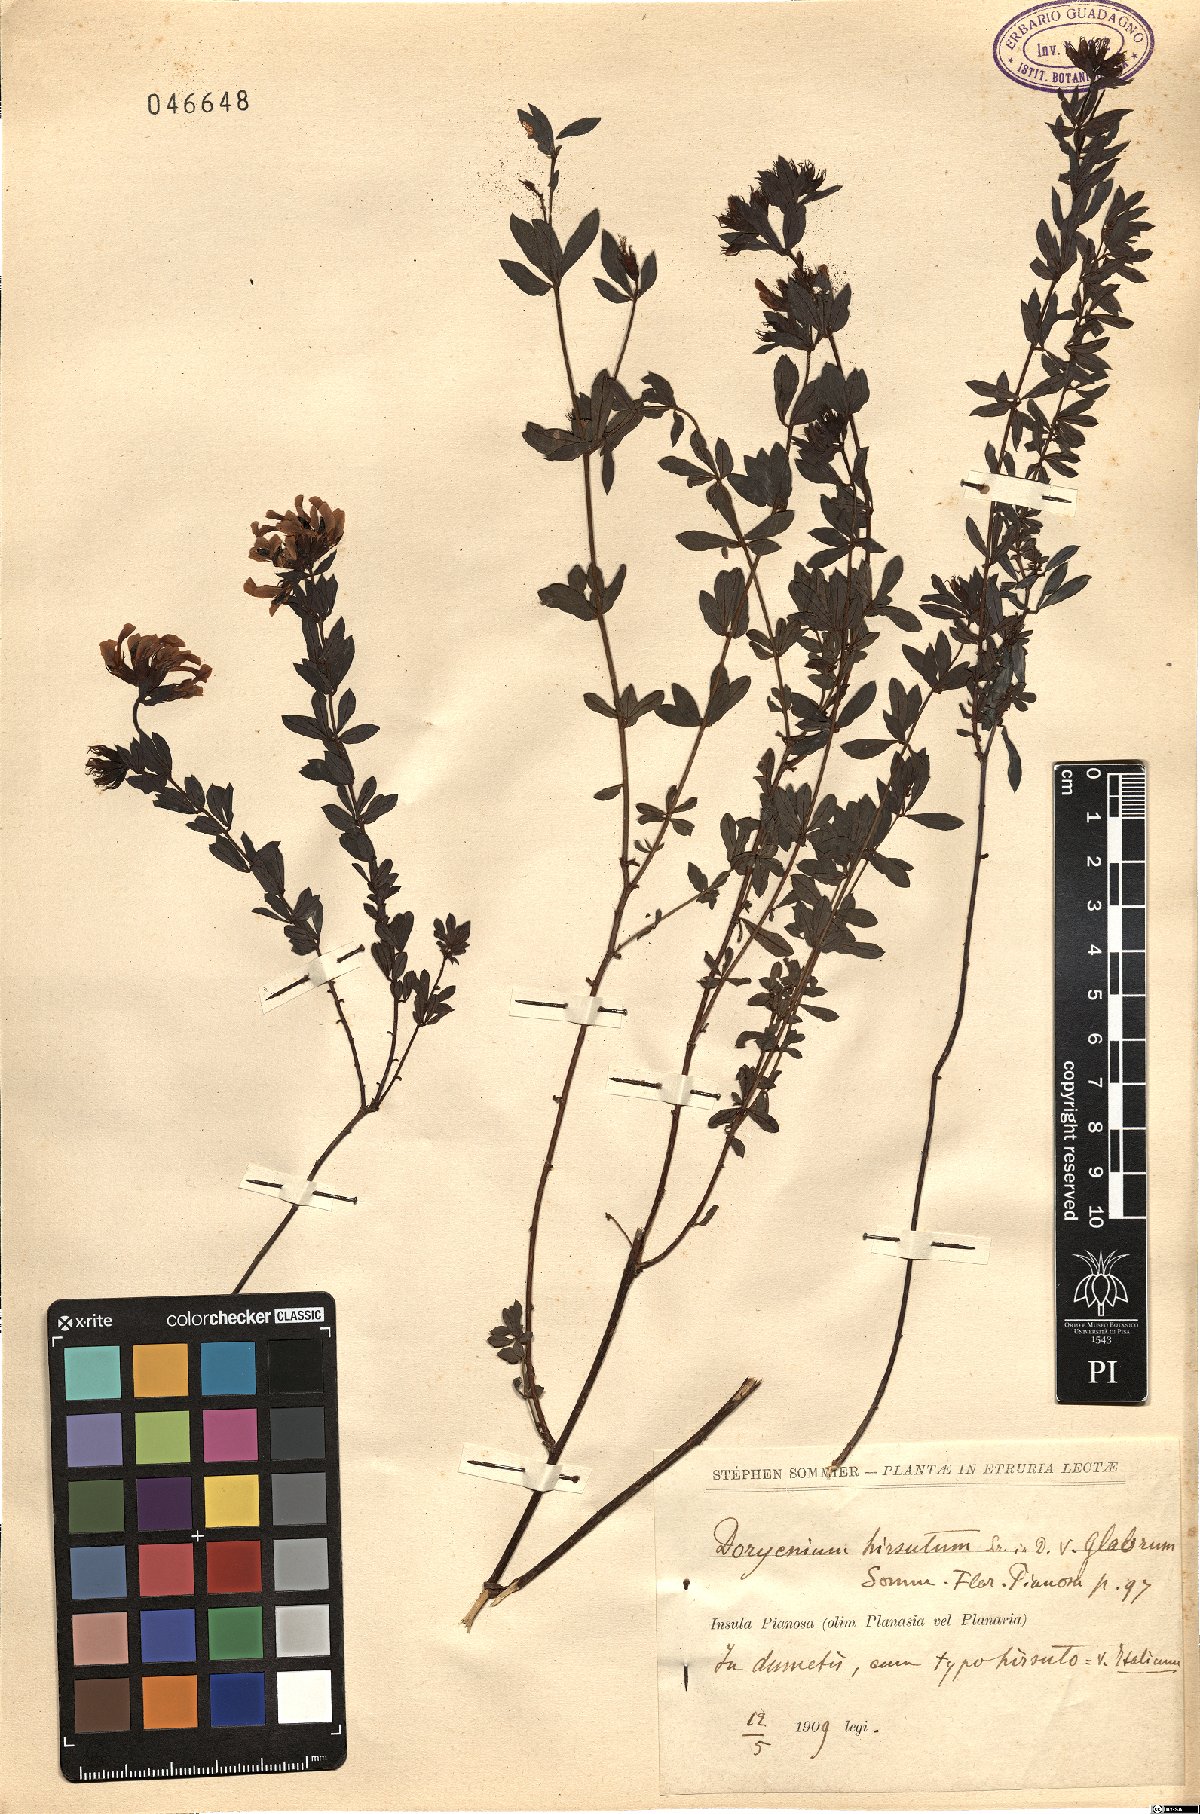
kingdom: Plantae
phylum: Tracheophyta
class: Magnoliopsida
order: Fabales
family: Fabaceae
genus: Lotus
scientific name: Lotus hirsutus
